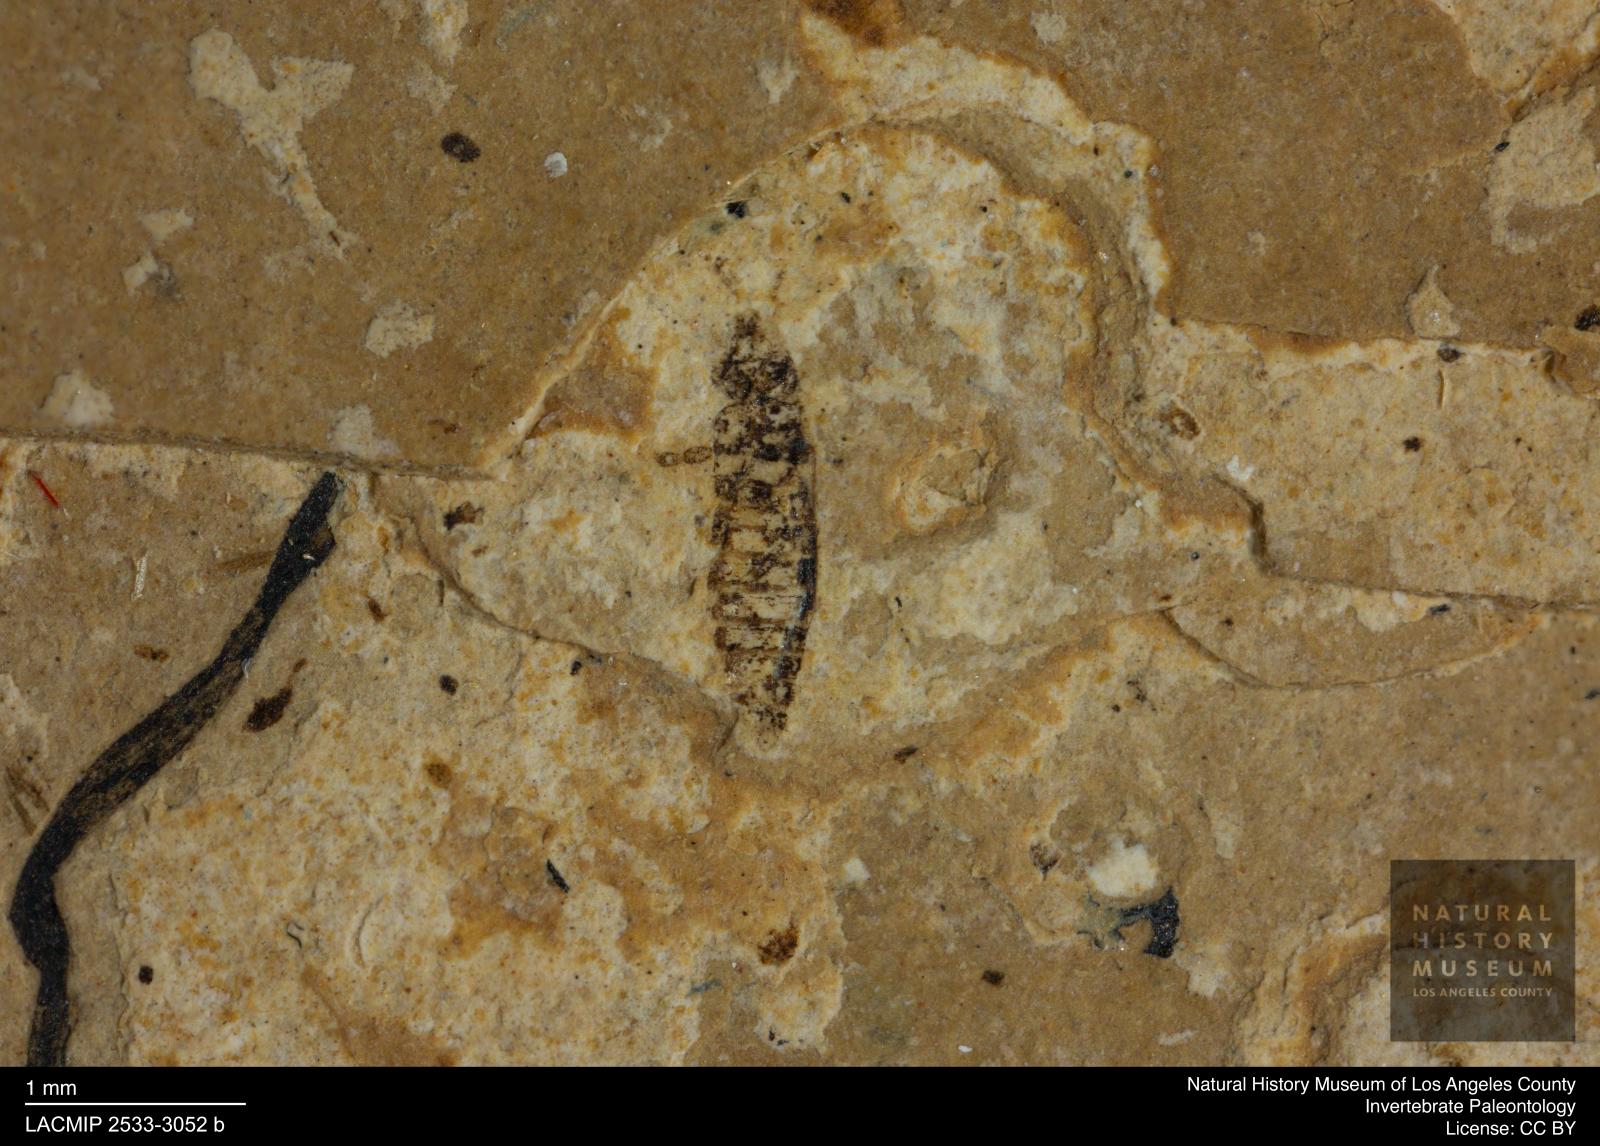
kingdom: Animalia
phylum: Arthropoda
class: Insecta
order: Thysanoptera
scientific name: Thysanoptera
